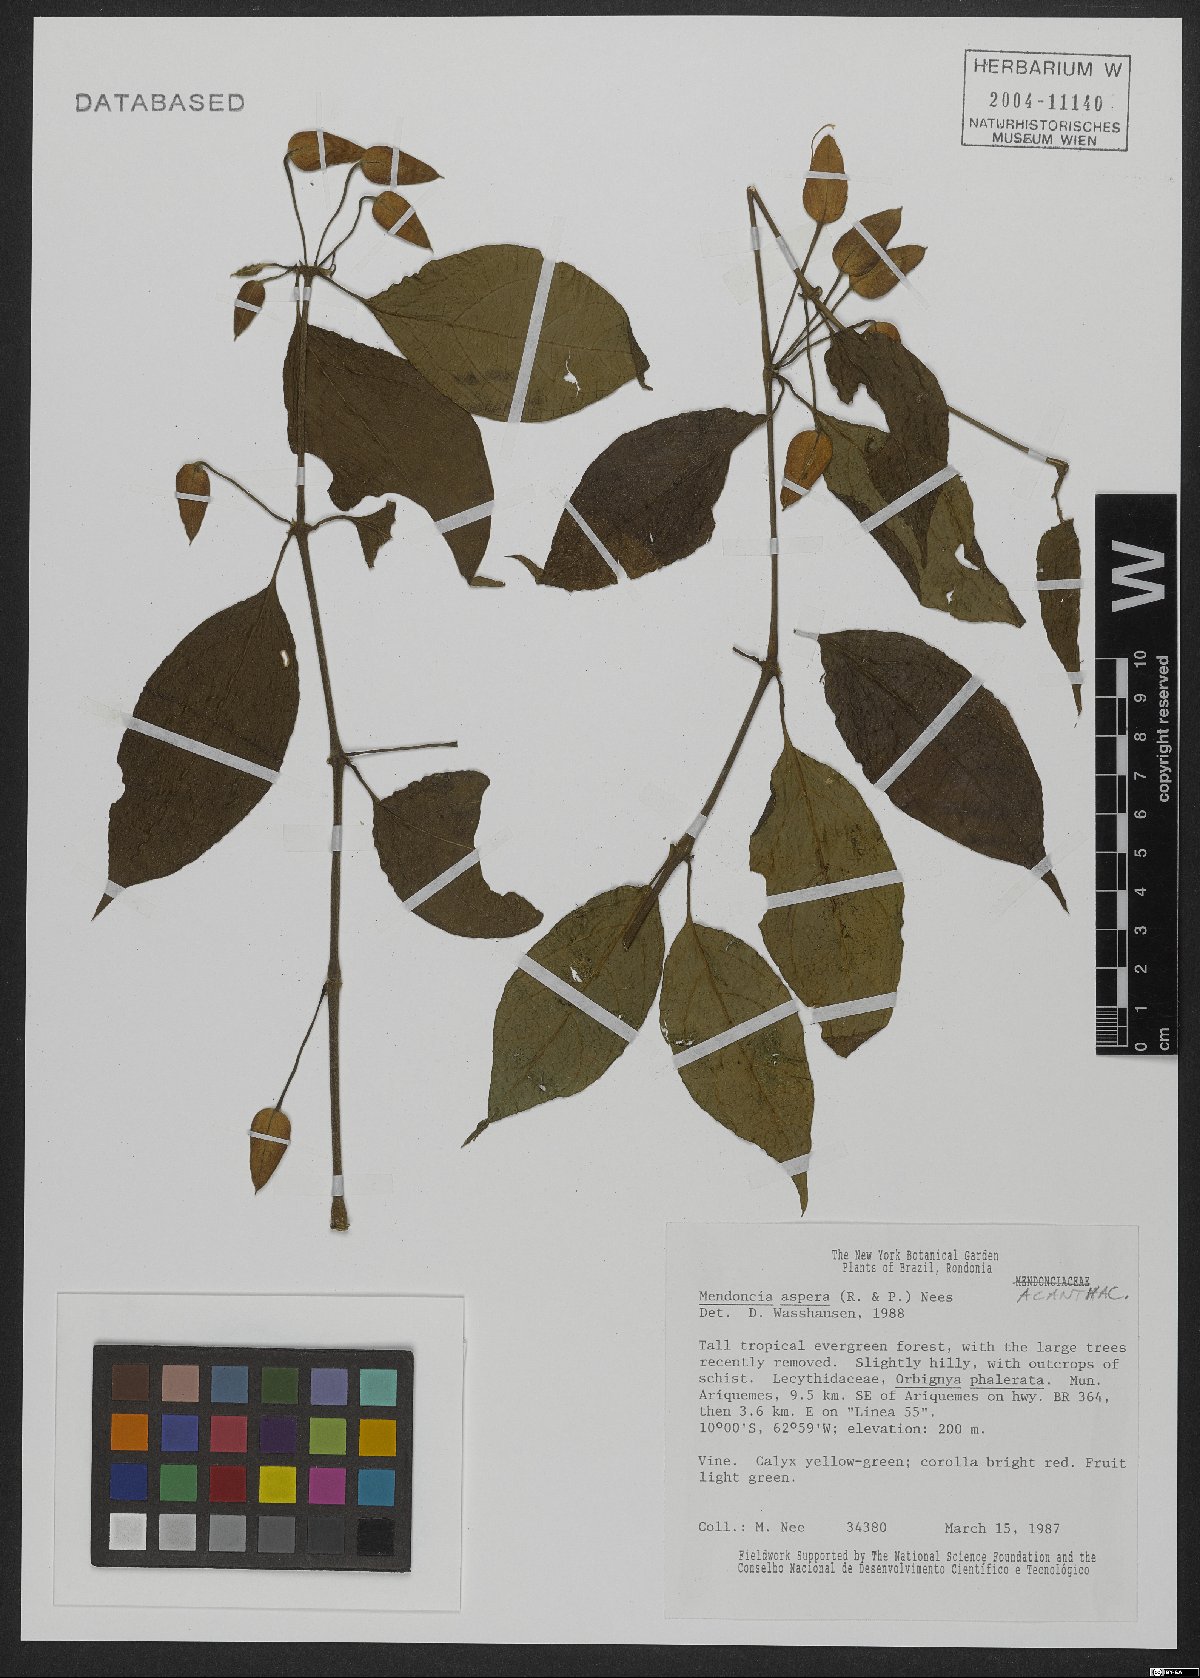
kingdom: Plantae
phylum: Tracheophyta
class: Magnoliopsida
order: Lamiales
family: Acanthaceae
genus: Mendoncia
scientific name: Mendoncia aspera
